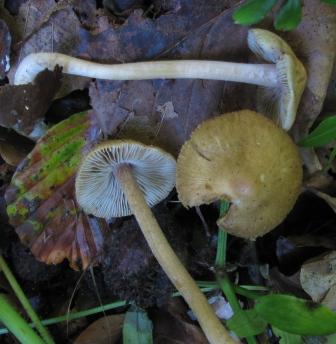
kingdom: Fungi
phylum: Basidiomycota
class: Agaricomycetes
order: Agaricales
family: Inocybaceae
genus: Inocybe
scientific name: Inocybe hirtella
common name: mandel-trævlhat
